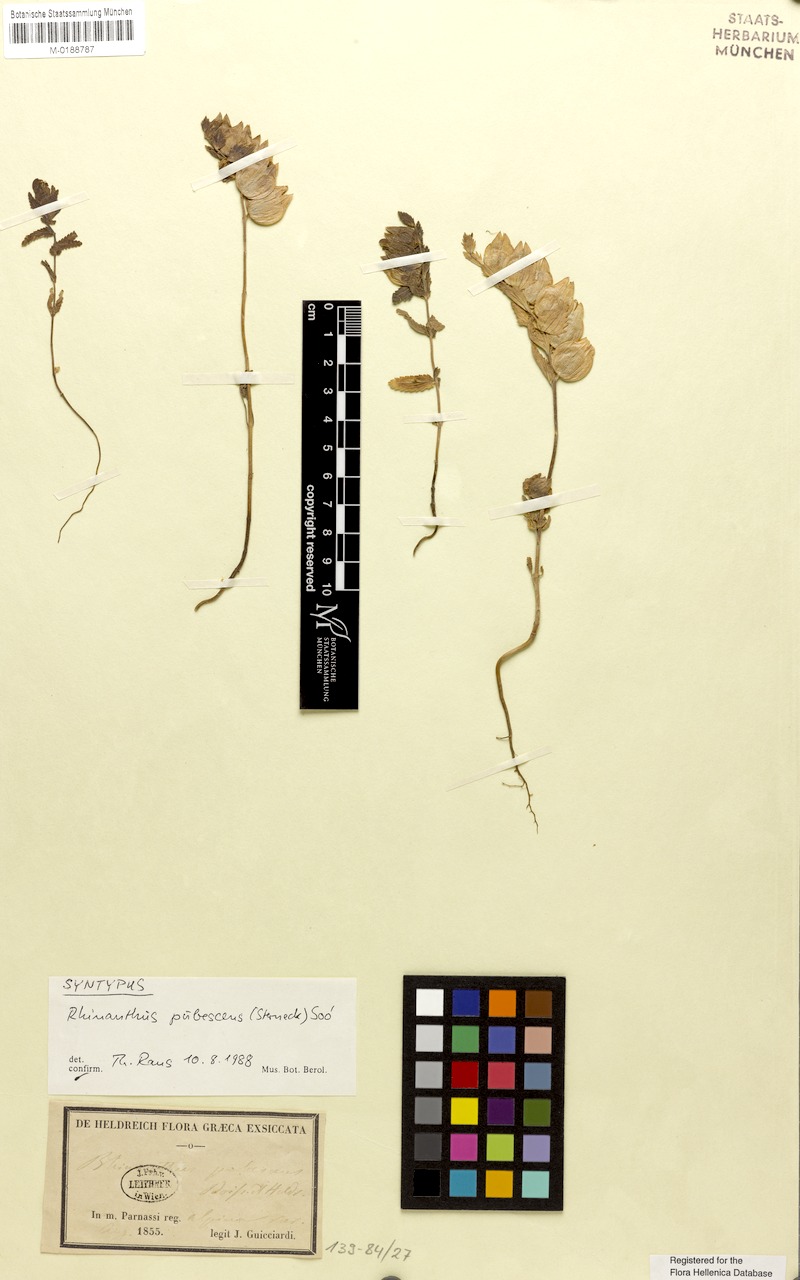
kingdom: Plantae
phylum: Tracheophyta
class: Magnoliopsida
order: Lamiales
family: Orobanchaceae
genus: Rhinanthus
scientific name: Rhinanthus pubescens
